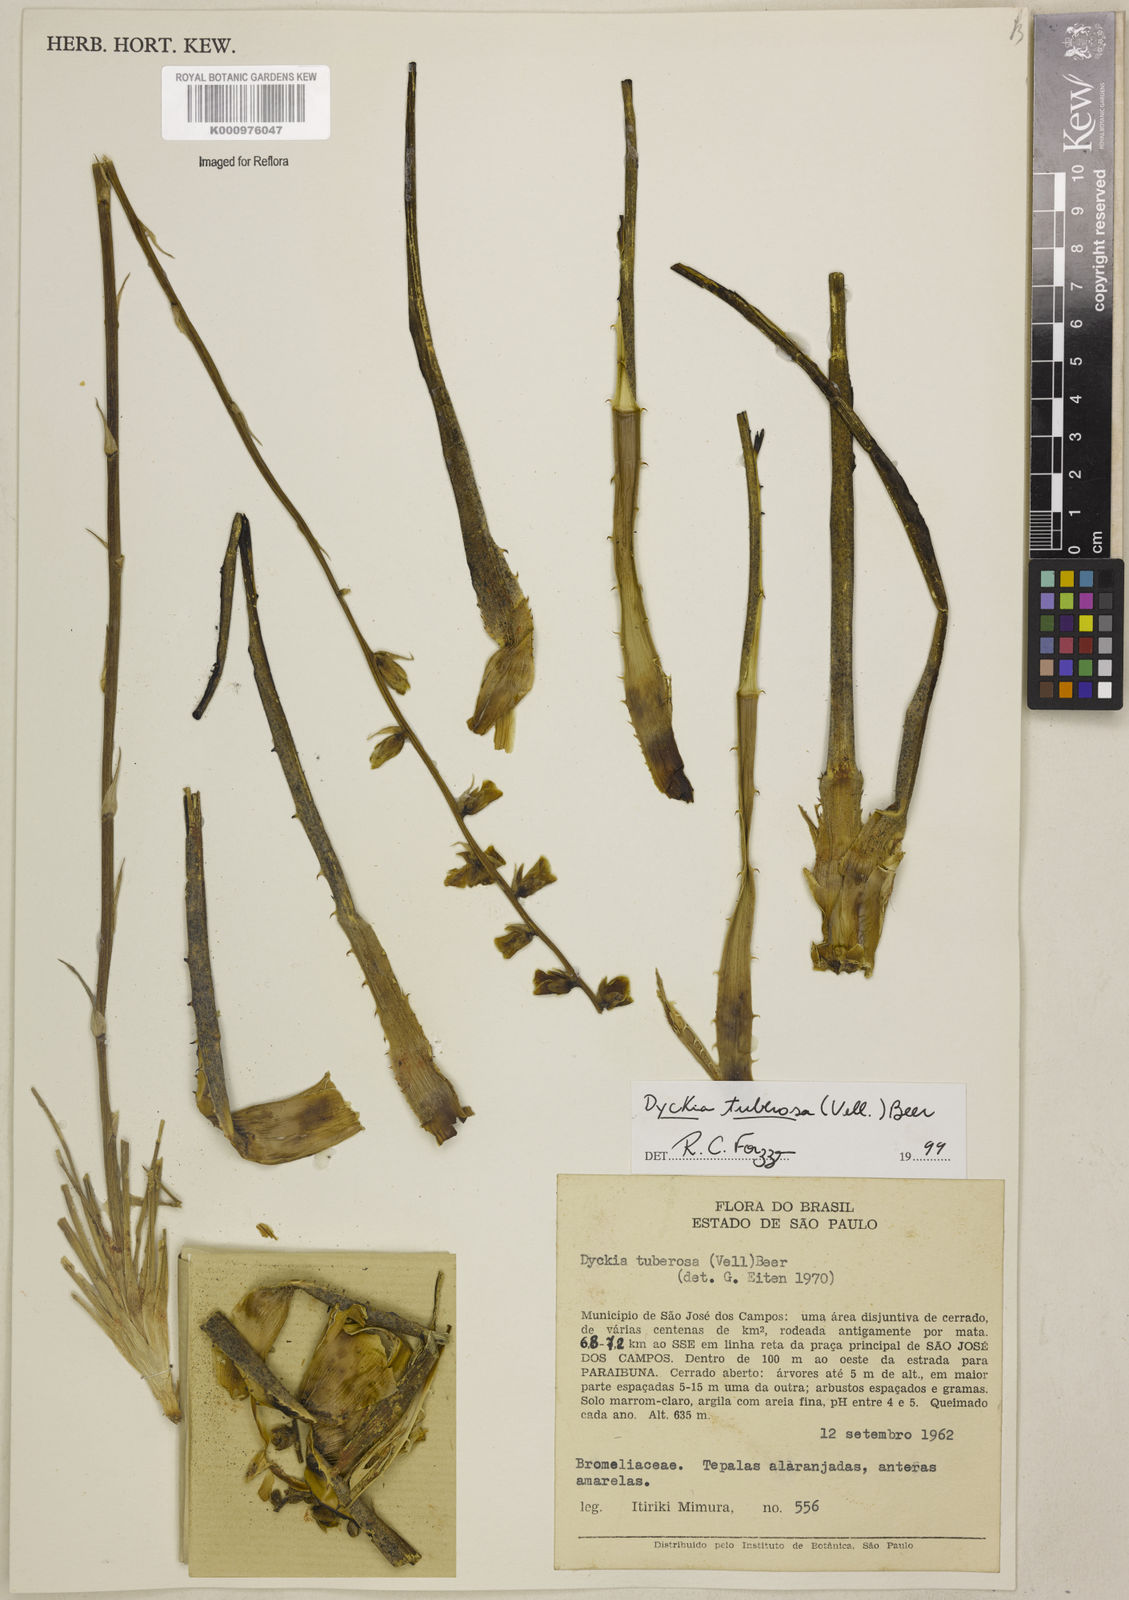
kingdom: Plantae
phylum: Tracheophyta
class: Liliopsida
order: Poales
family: Bromeliaceae
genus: Dyckia
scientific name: Dyckia tuberosa
